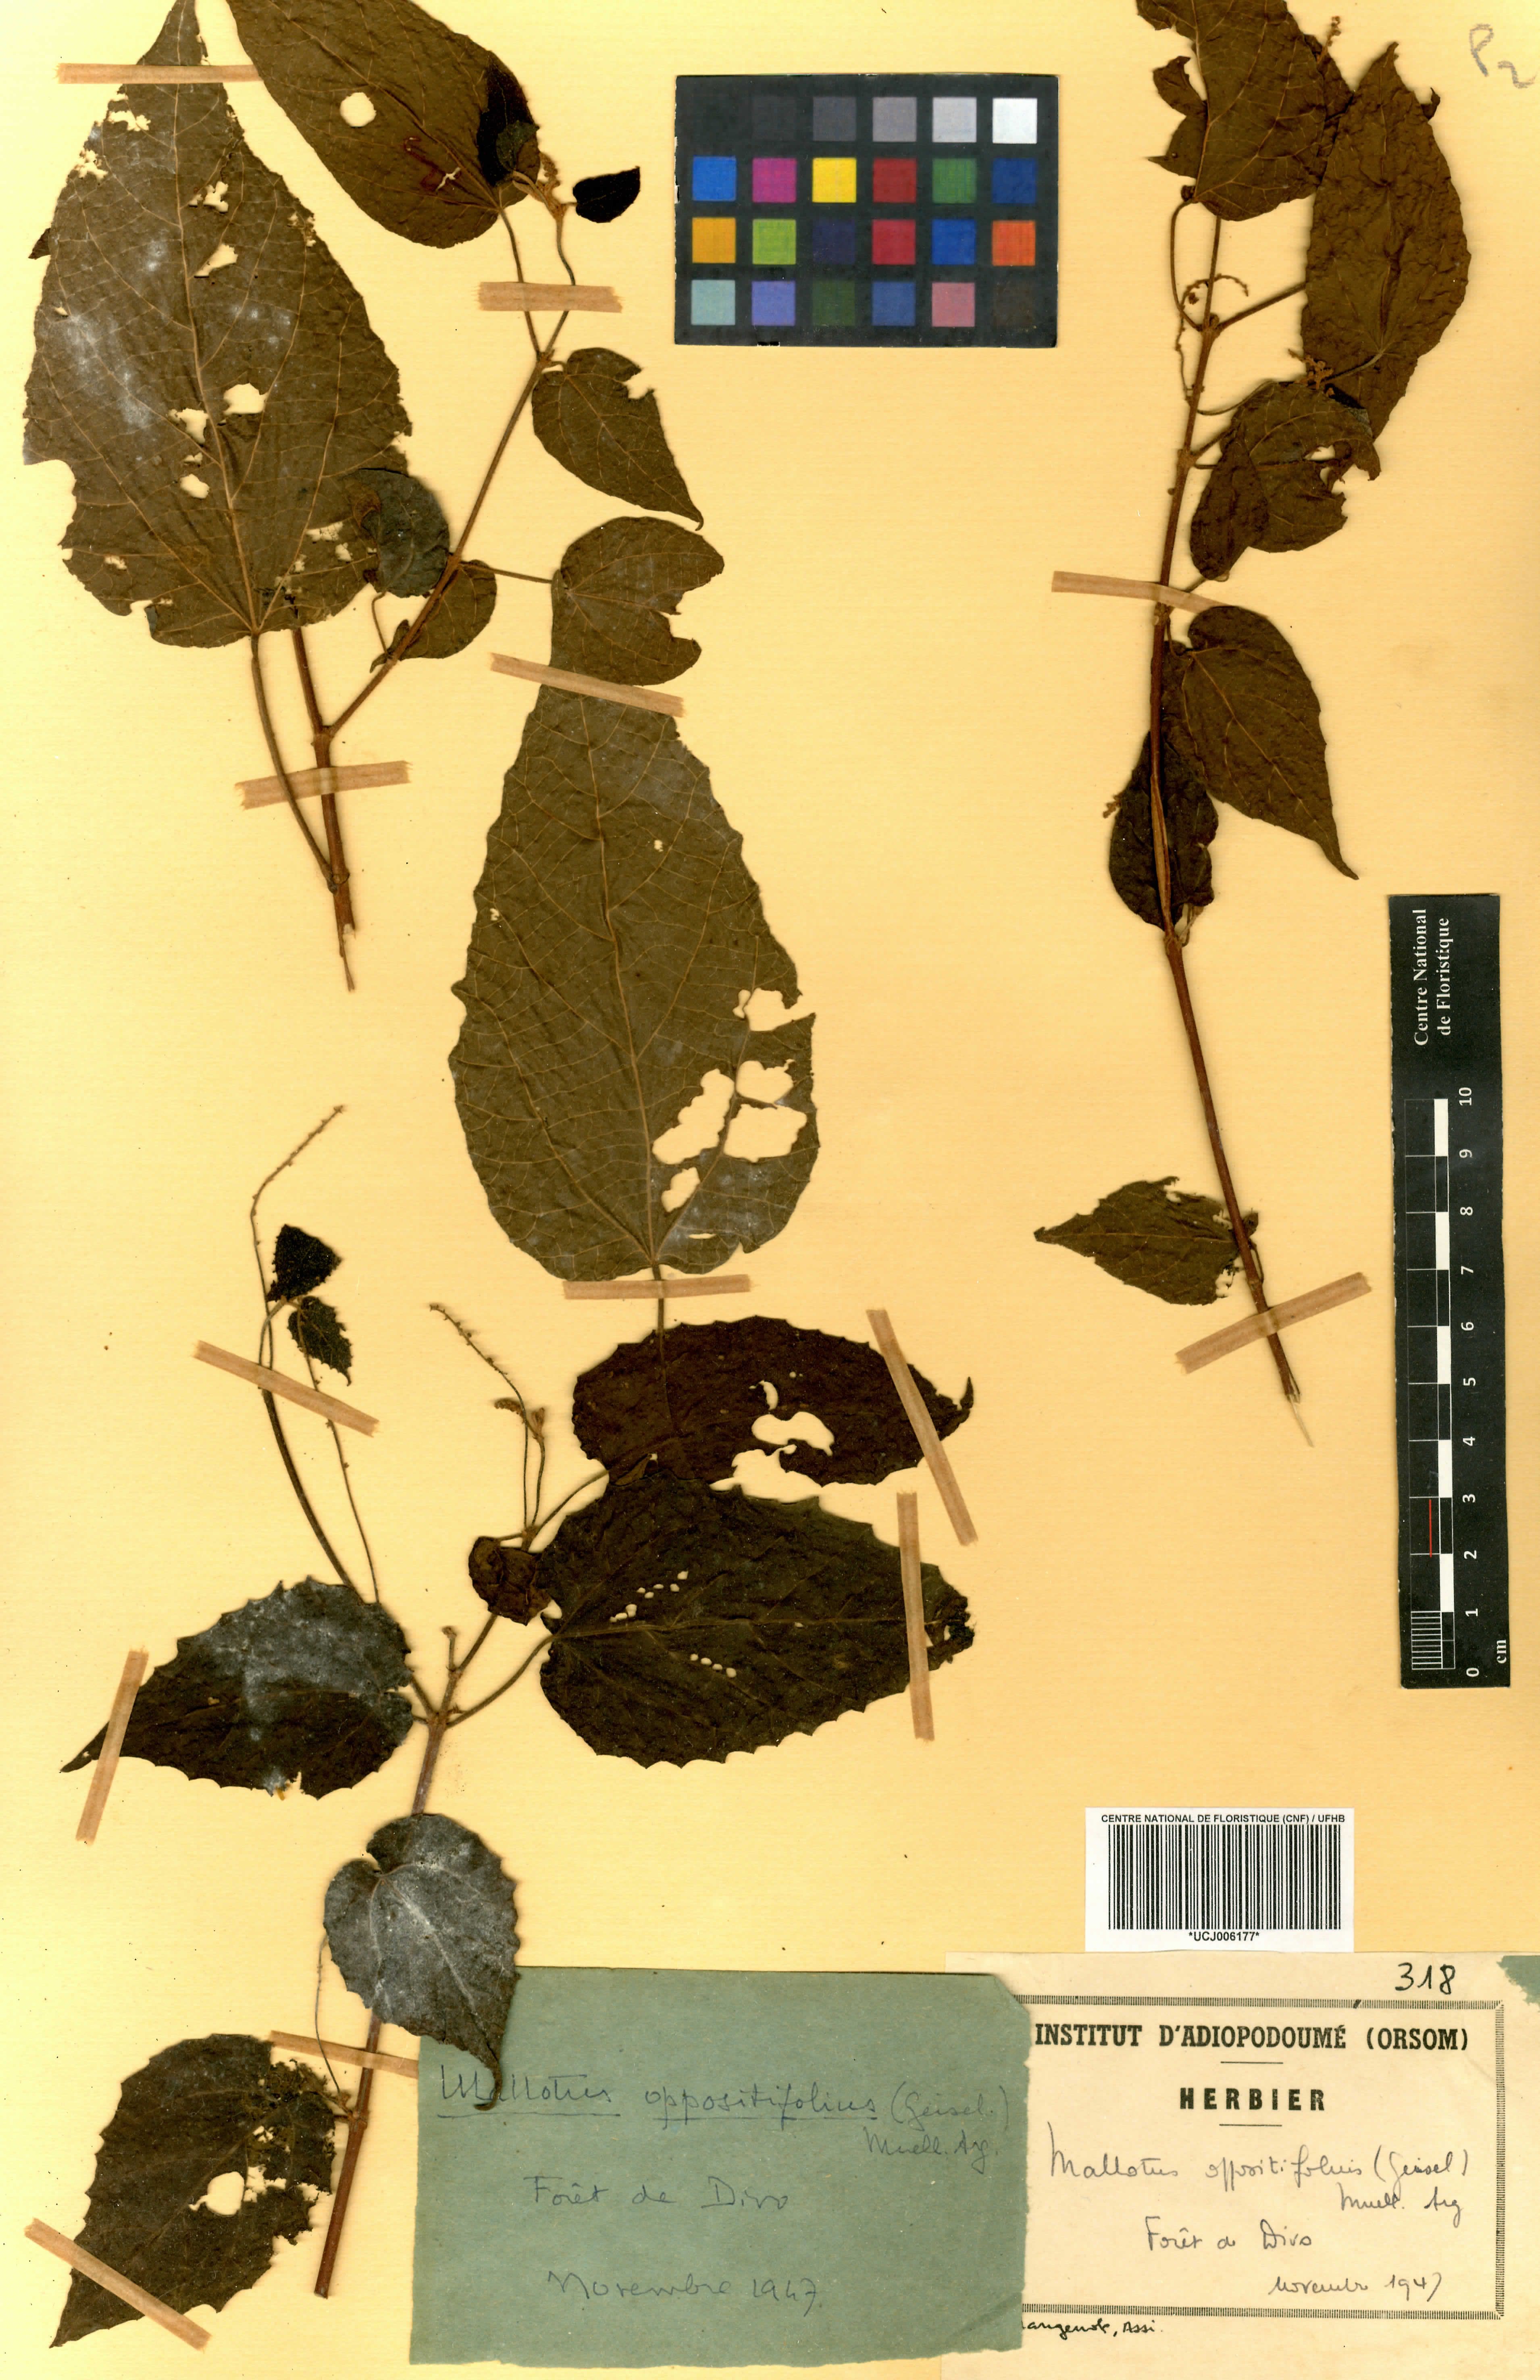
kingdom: Plantae
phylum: Tracheophyta
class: Magnoliopsida
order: Malpighiales
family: Euphorbiaceae
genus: Mallotus
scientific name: Mallotus oppositifolius
